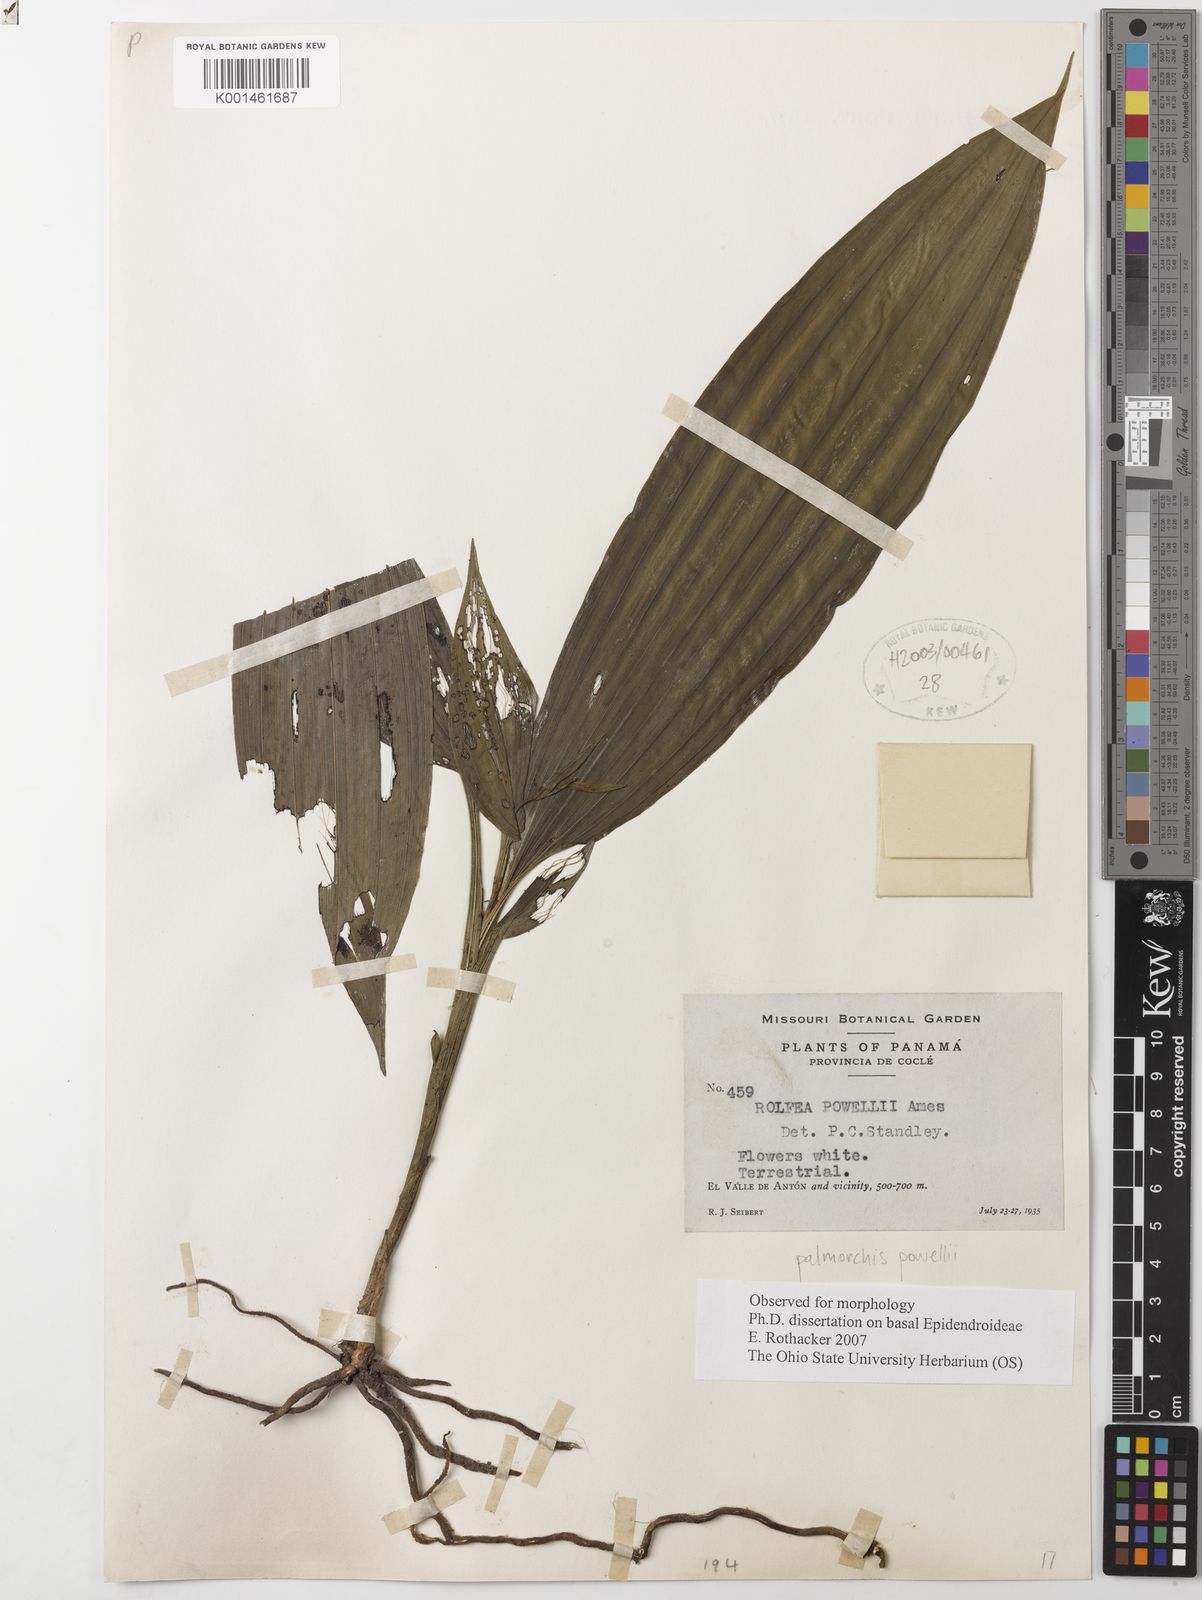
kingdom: Plantae
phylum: Tracheophyta
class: Liliopsida
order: Asparagales
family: Orchidaceae
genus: Palmorchis
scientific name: Palmorchis powellii
